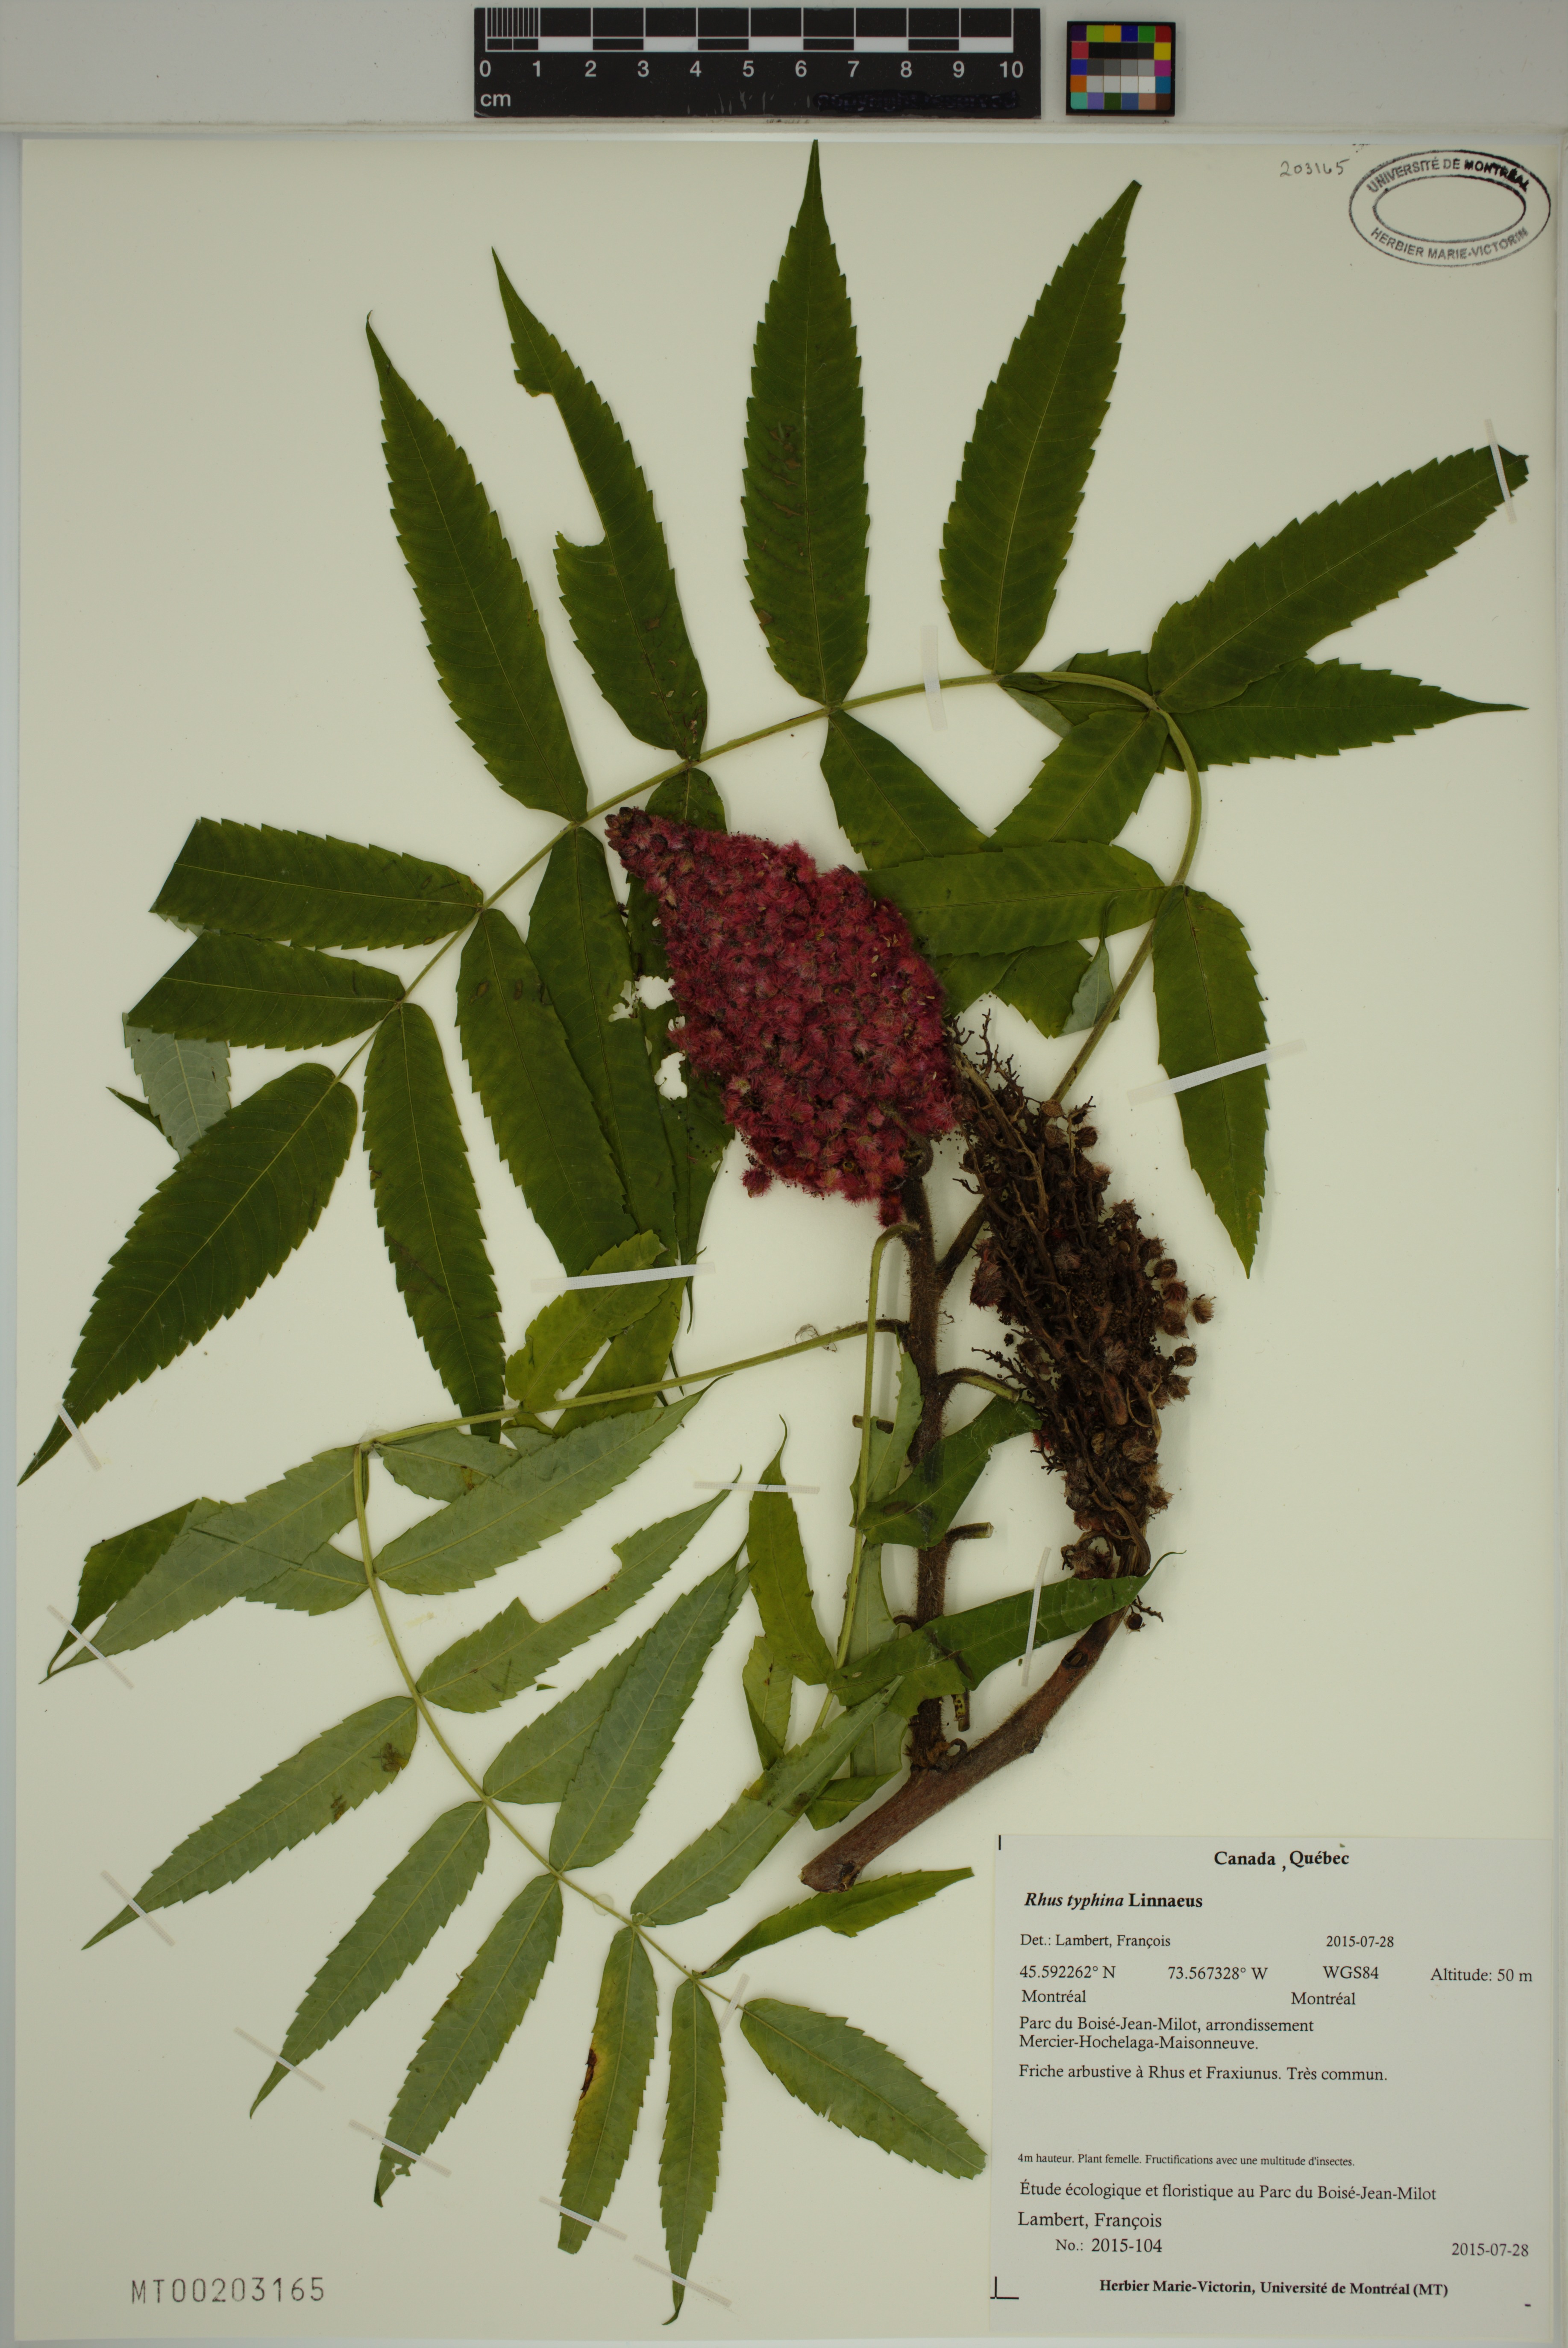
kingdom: Plantae
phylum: Tracheophyta
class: Magnoliopsida
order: Sapindales
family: Anacardiaceae
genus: Rhus
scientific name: Rhus typhina
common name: Staghorn sumac
